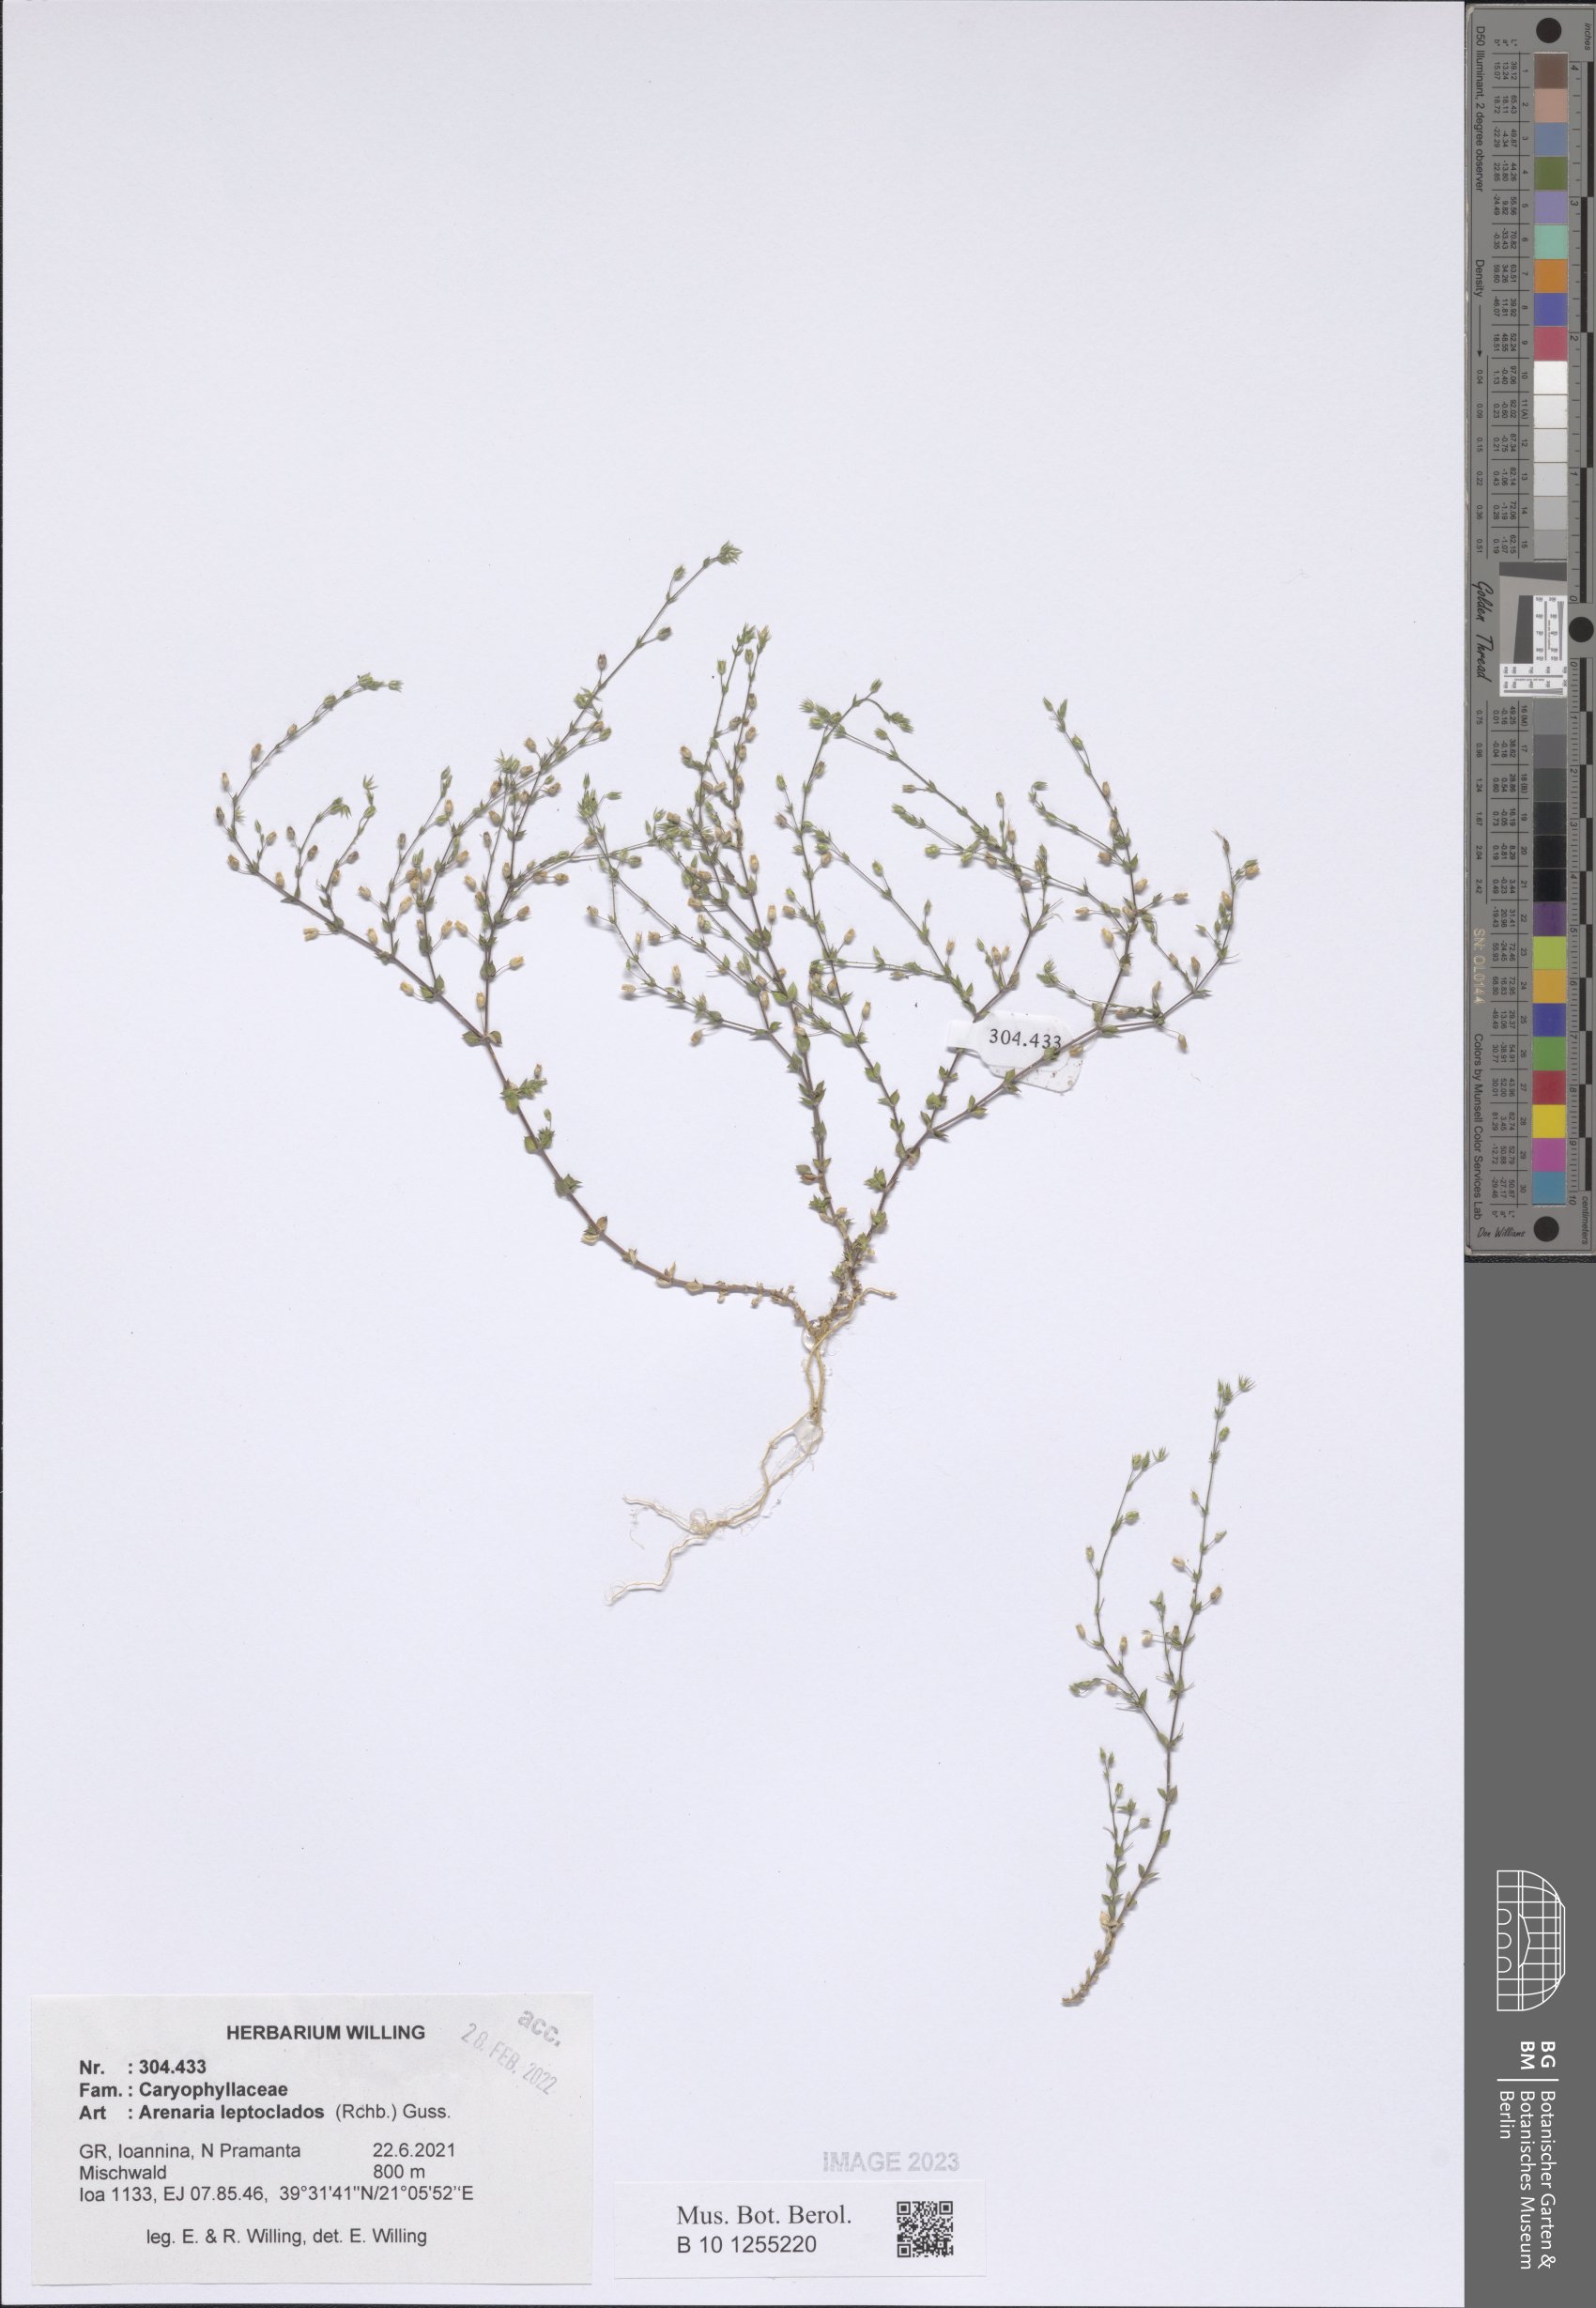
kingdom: Plantae
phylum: Tracheophyta
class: Magnoliopsida
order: Caryophyllales
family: Caryophyllaceae
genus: Arenaria
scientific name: Arenaria leptoclados
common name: Thyme-leaved sandwort
